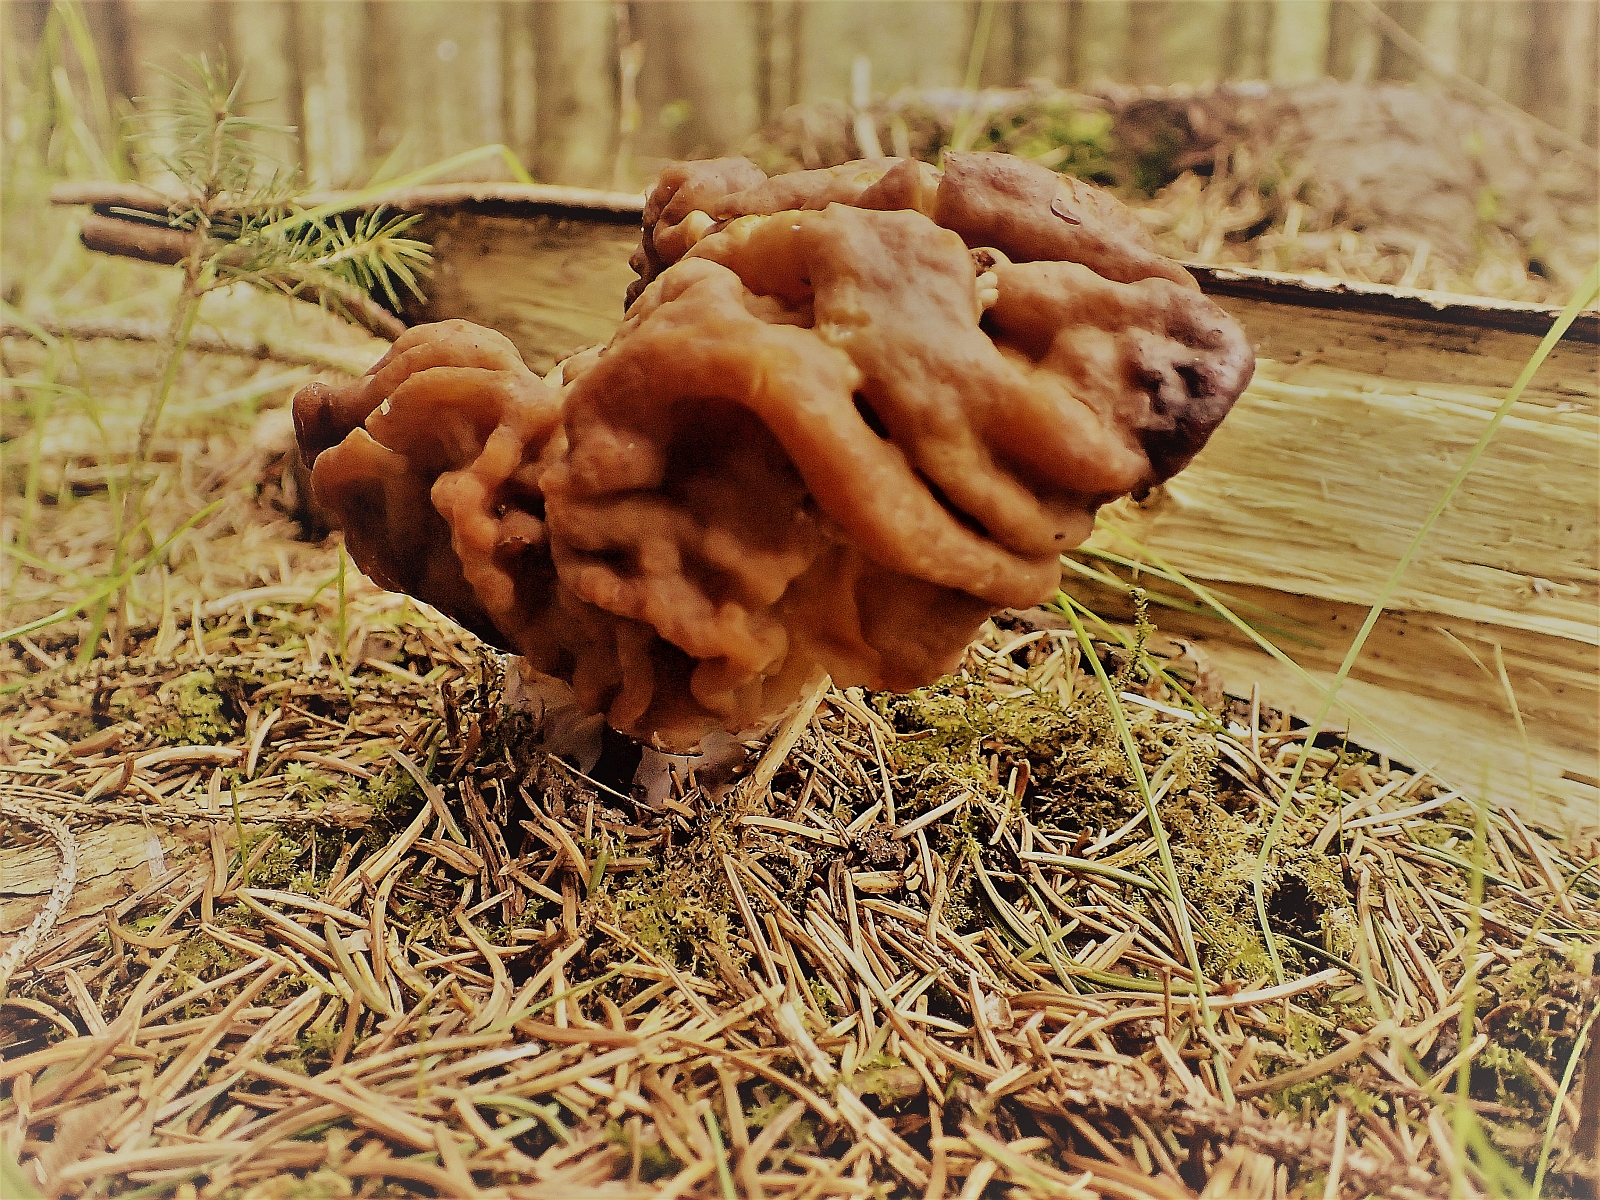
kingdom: Fungi
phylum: Ascomycota
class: Pezizomycetes
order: Pezizales
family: Discinaceae
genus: Gyromitra
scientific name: Gyromitra gigas
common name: kæmpe-stenmorkel
